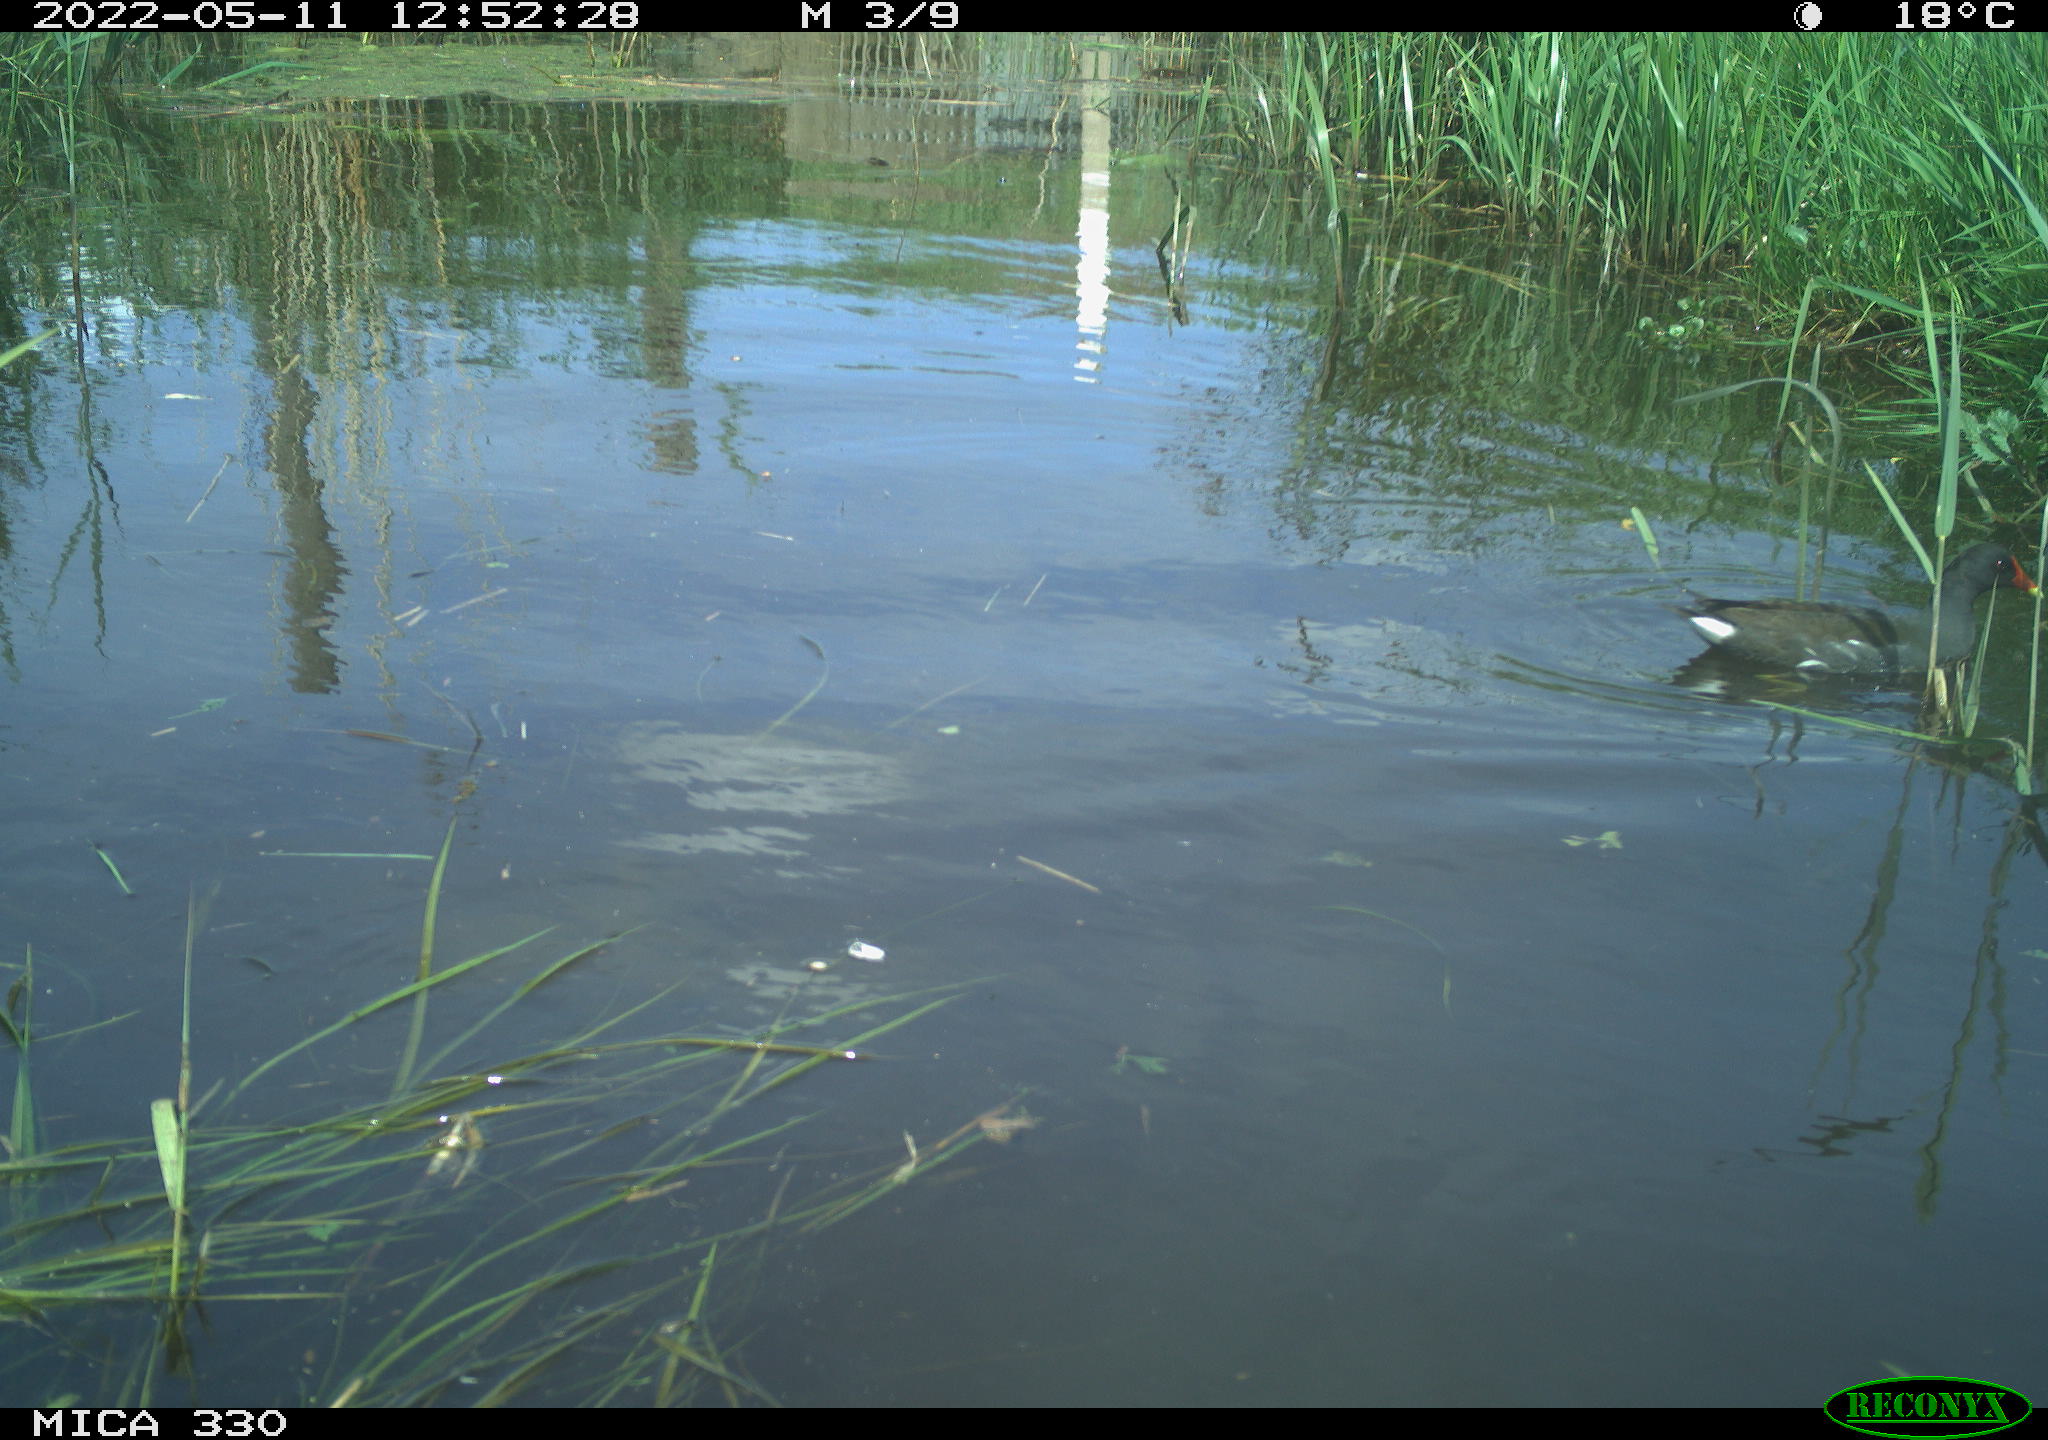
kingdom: Animalia
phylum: Chordata
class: Aves
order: Gruiformes
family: Rallidae
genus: Gallinula
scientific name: Gallinula chloropus
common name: Common moorhen
